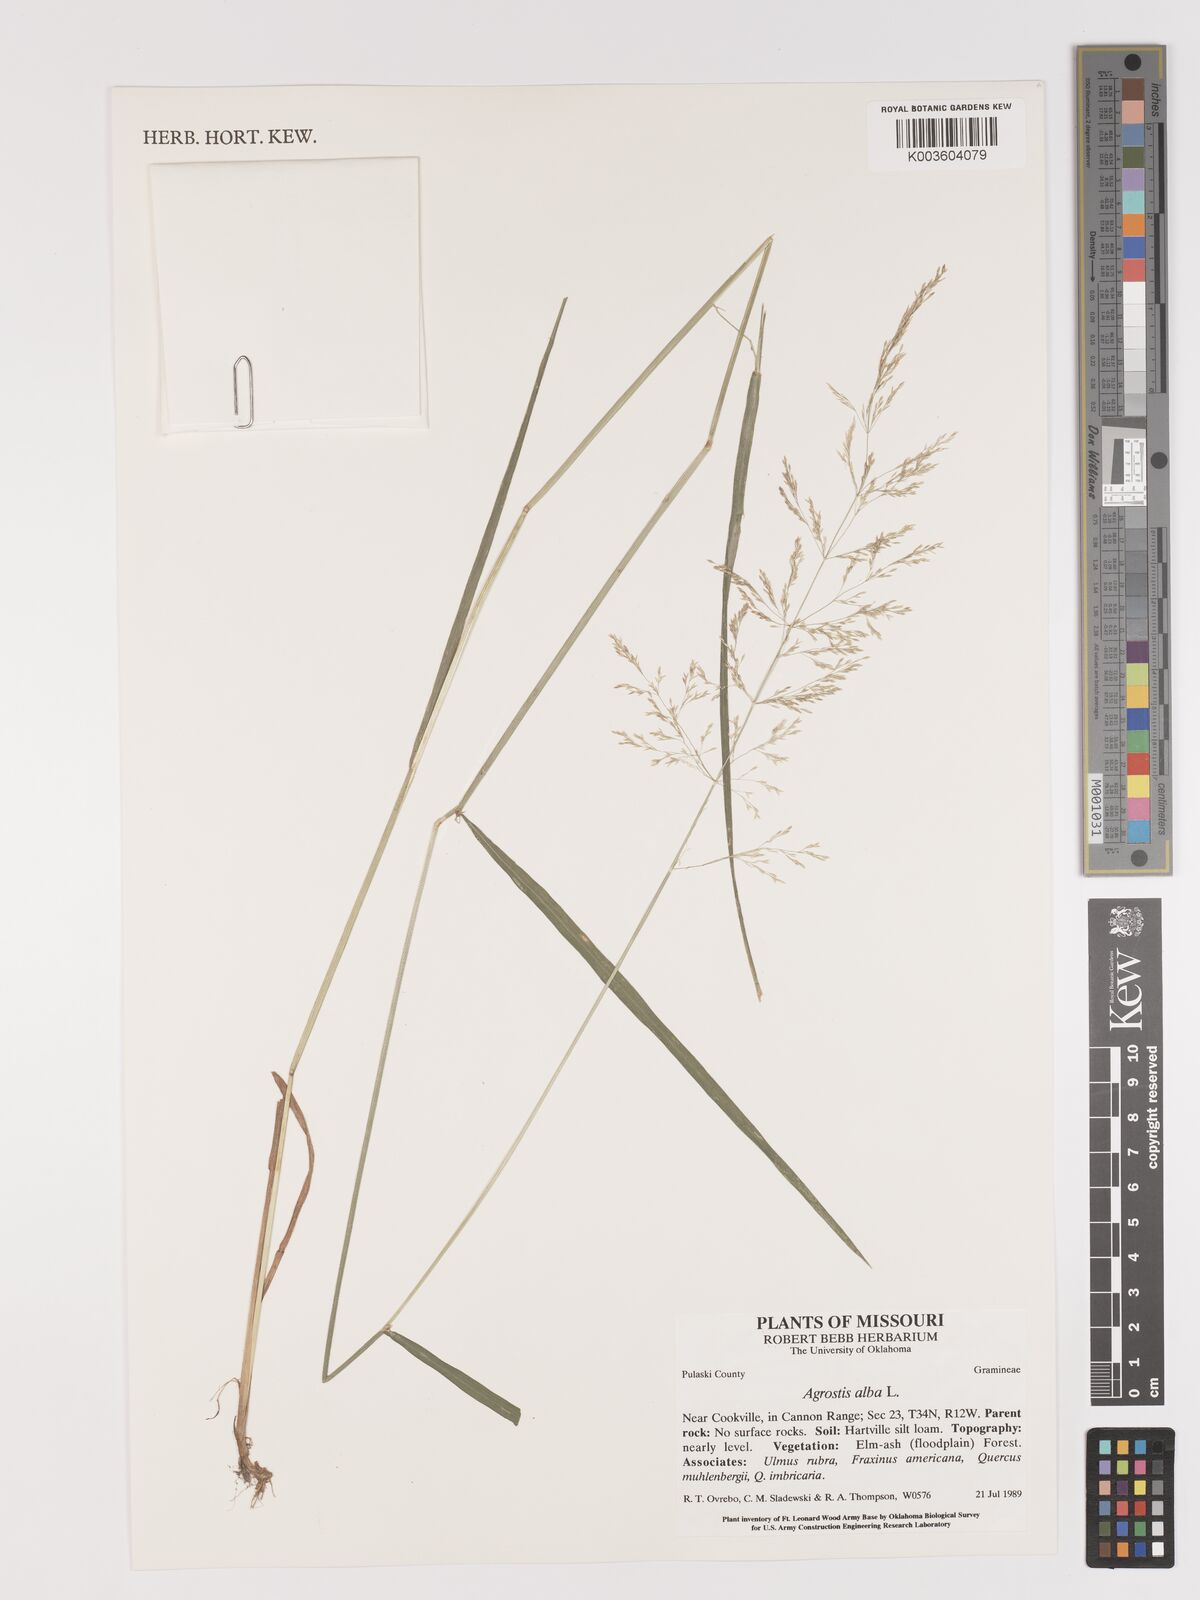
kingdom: Plantae
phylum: Tracheophyta
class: Liliopsida
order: Poales
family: Poaceae
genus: Agrostis
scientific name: Agrostis gigantea
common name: Black bent
